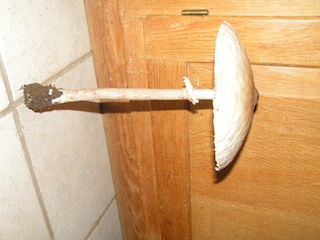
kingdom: Fungi
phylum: Basidiomycota
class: Agaricomycetes
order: Agaricales
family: Agaricaceae
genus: Macrolepiota
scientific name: Macrolepiota fuliginosa
